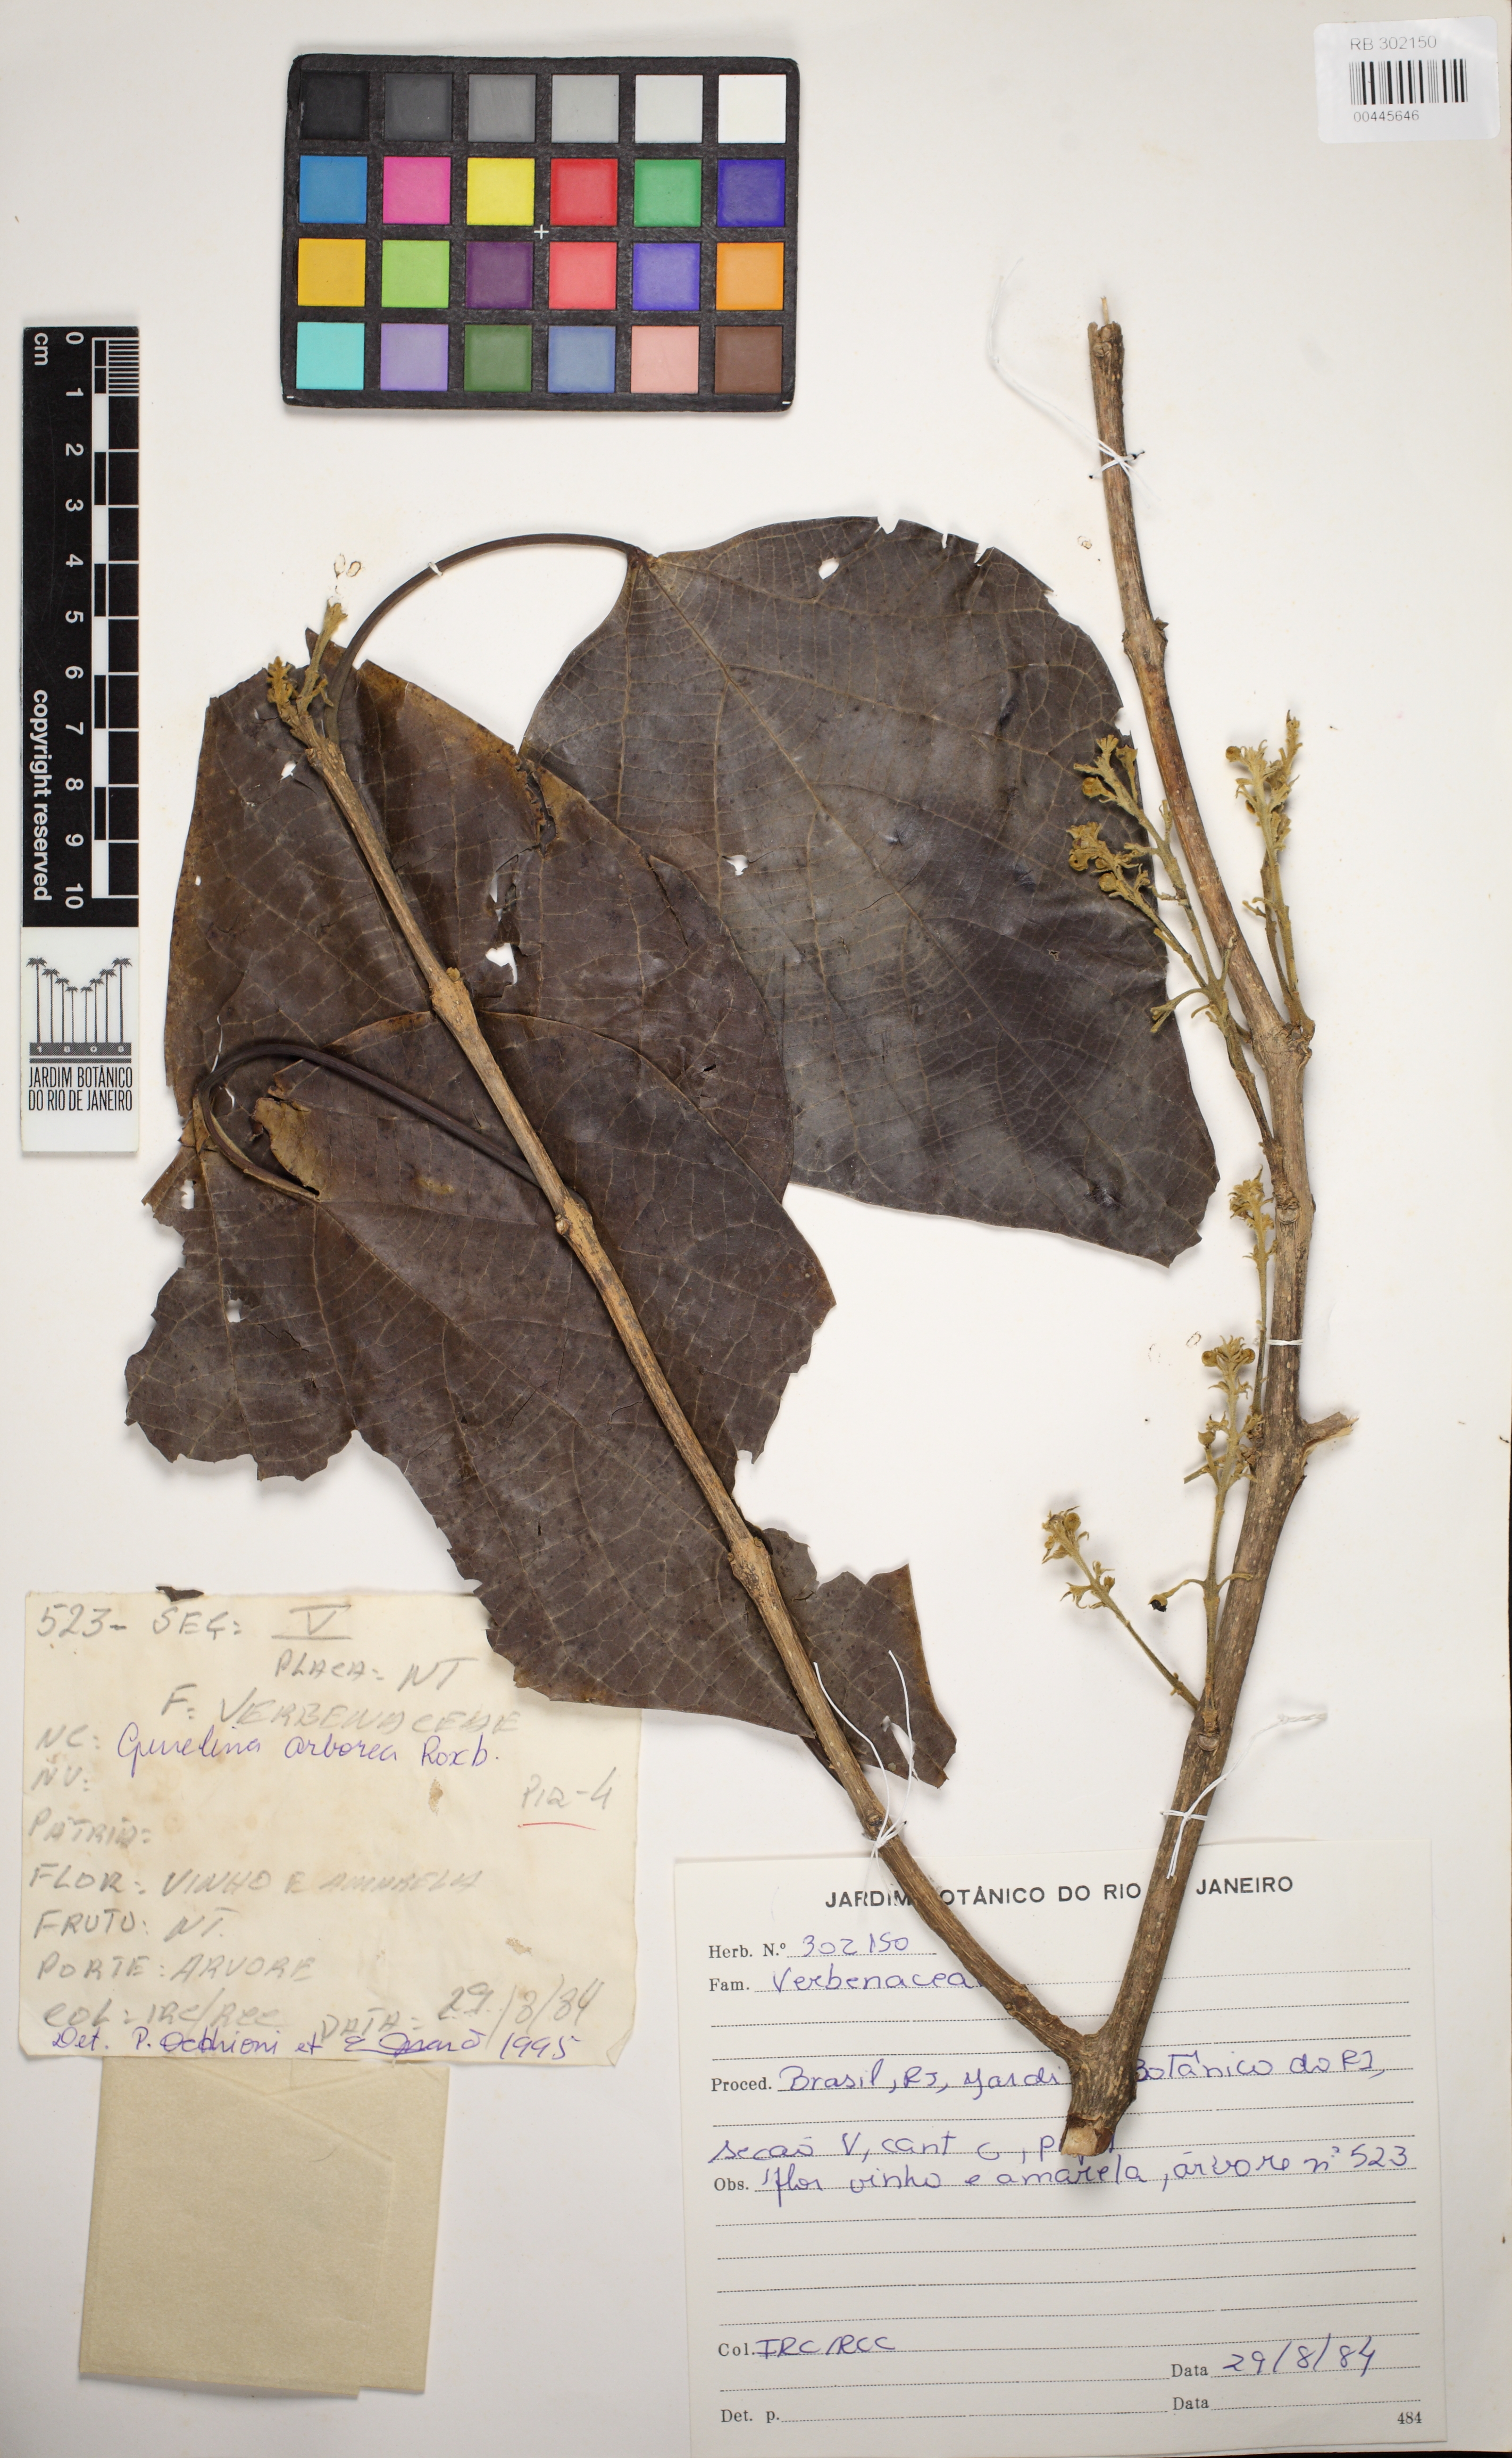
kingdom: Plantae
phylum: Tracheophyta
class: Magnoliopsida
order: Lamiales
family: Lamiaceae
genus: Gmelina
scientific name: Gmelina arborea
